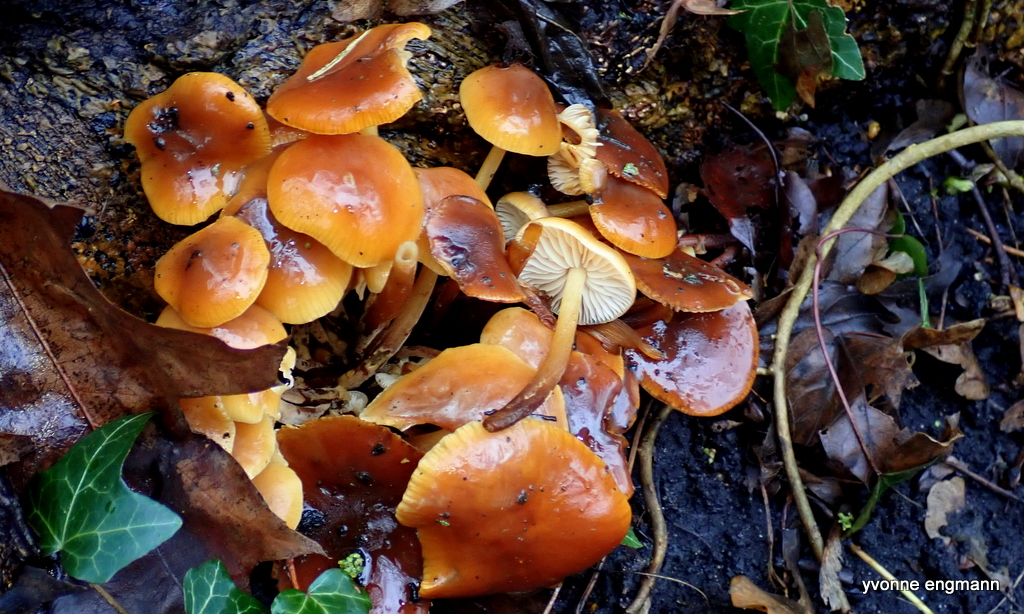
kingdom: Fungi
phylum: Basidiomycota
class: Agaricomycetes
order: Agaricales
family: Physalacriaceae
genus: Flammulina
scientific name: Flammulina velutipes
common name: gul fløjlsfod
